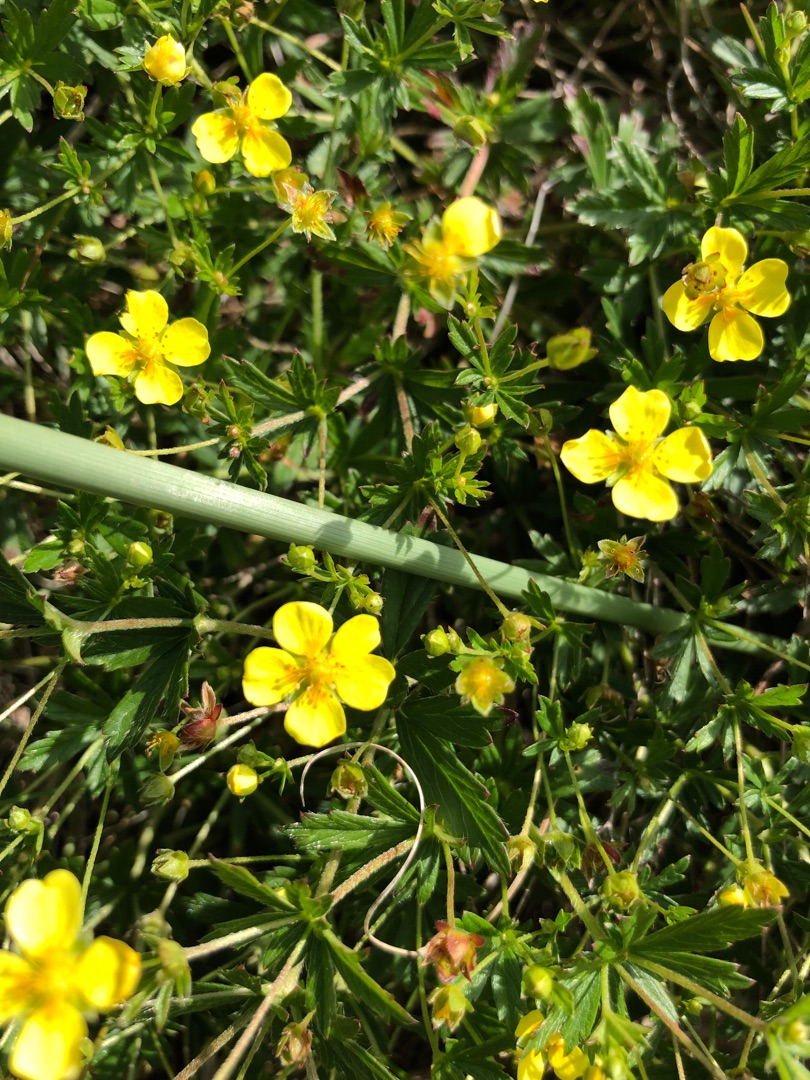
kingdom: Plantae
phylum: Tracheophyta
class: Magnoliopsida
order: Rosales
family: Rosaceae
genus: Potentilla
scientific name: Potentilla erecta
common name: Tormentil
